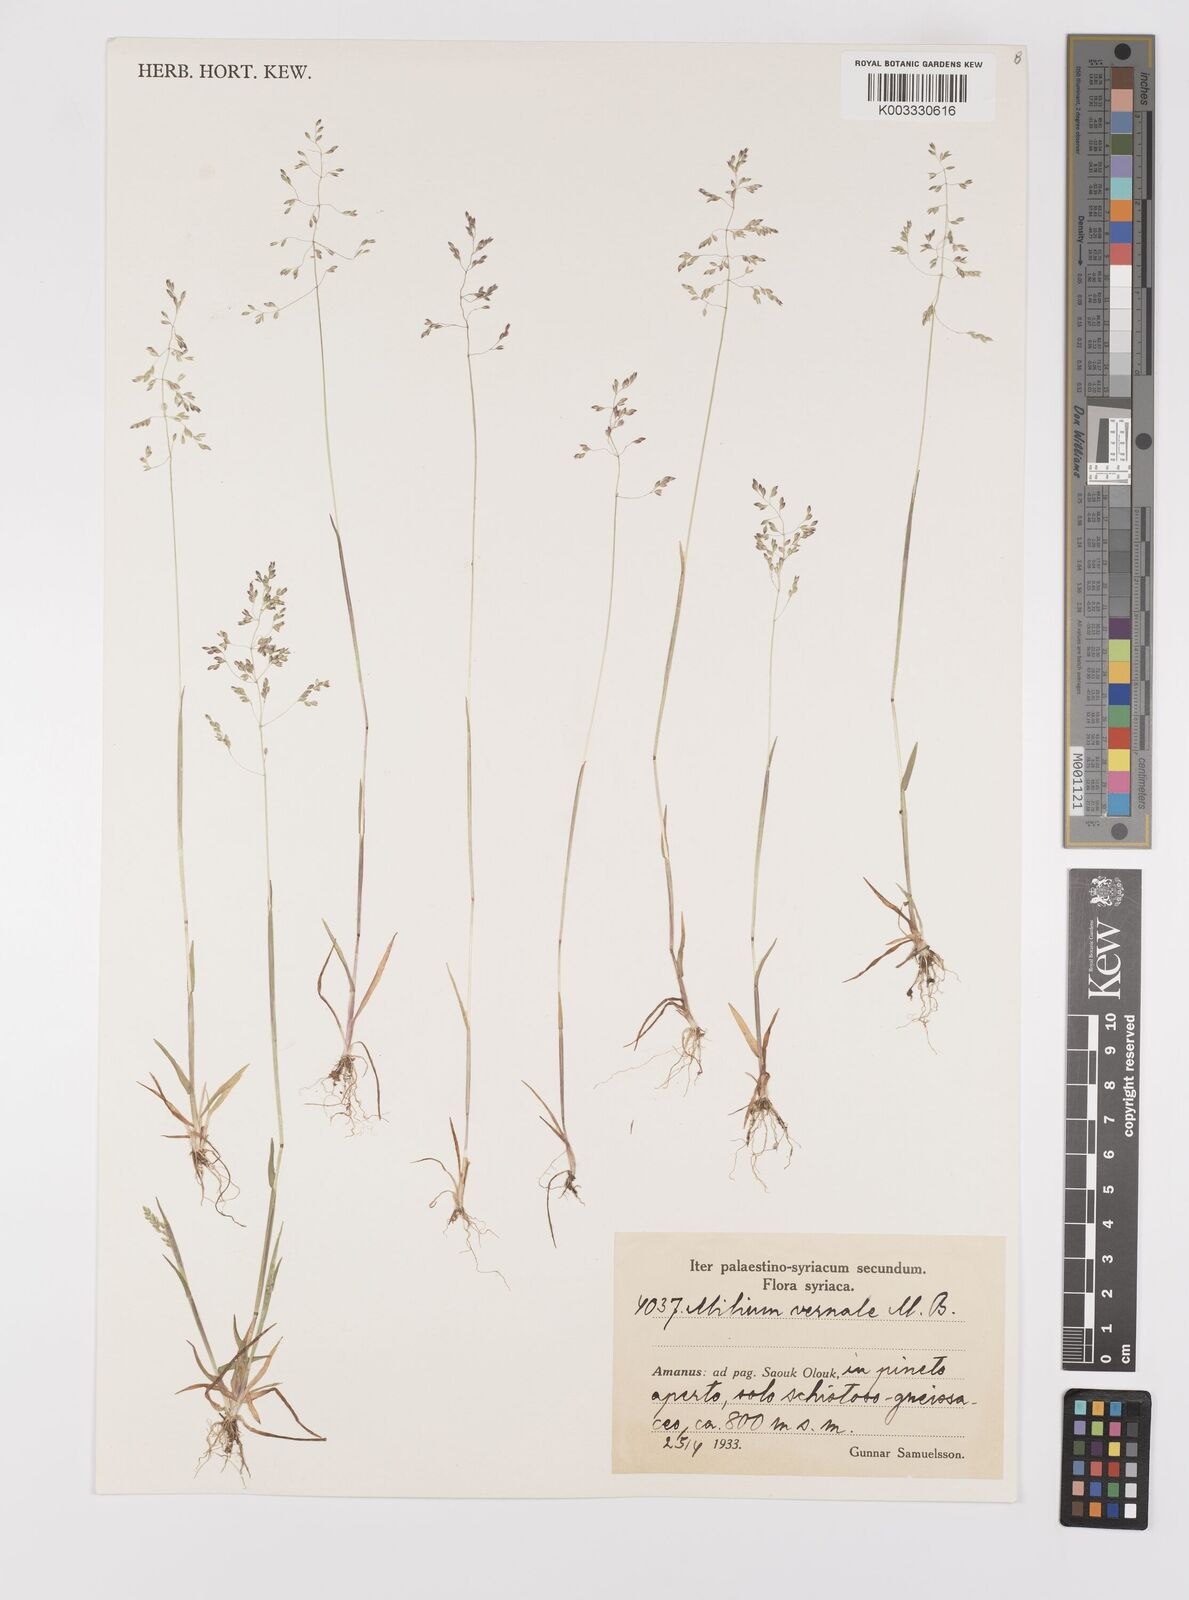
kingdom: Plantae
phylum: Tracheophyta
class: Liliopsida
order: Poales
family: Poaceae
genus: Milium
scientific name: Milium vernale
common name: Early millet
